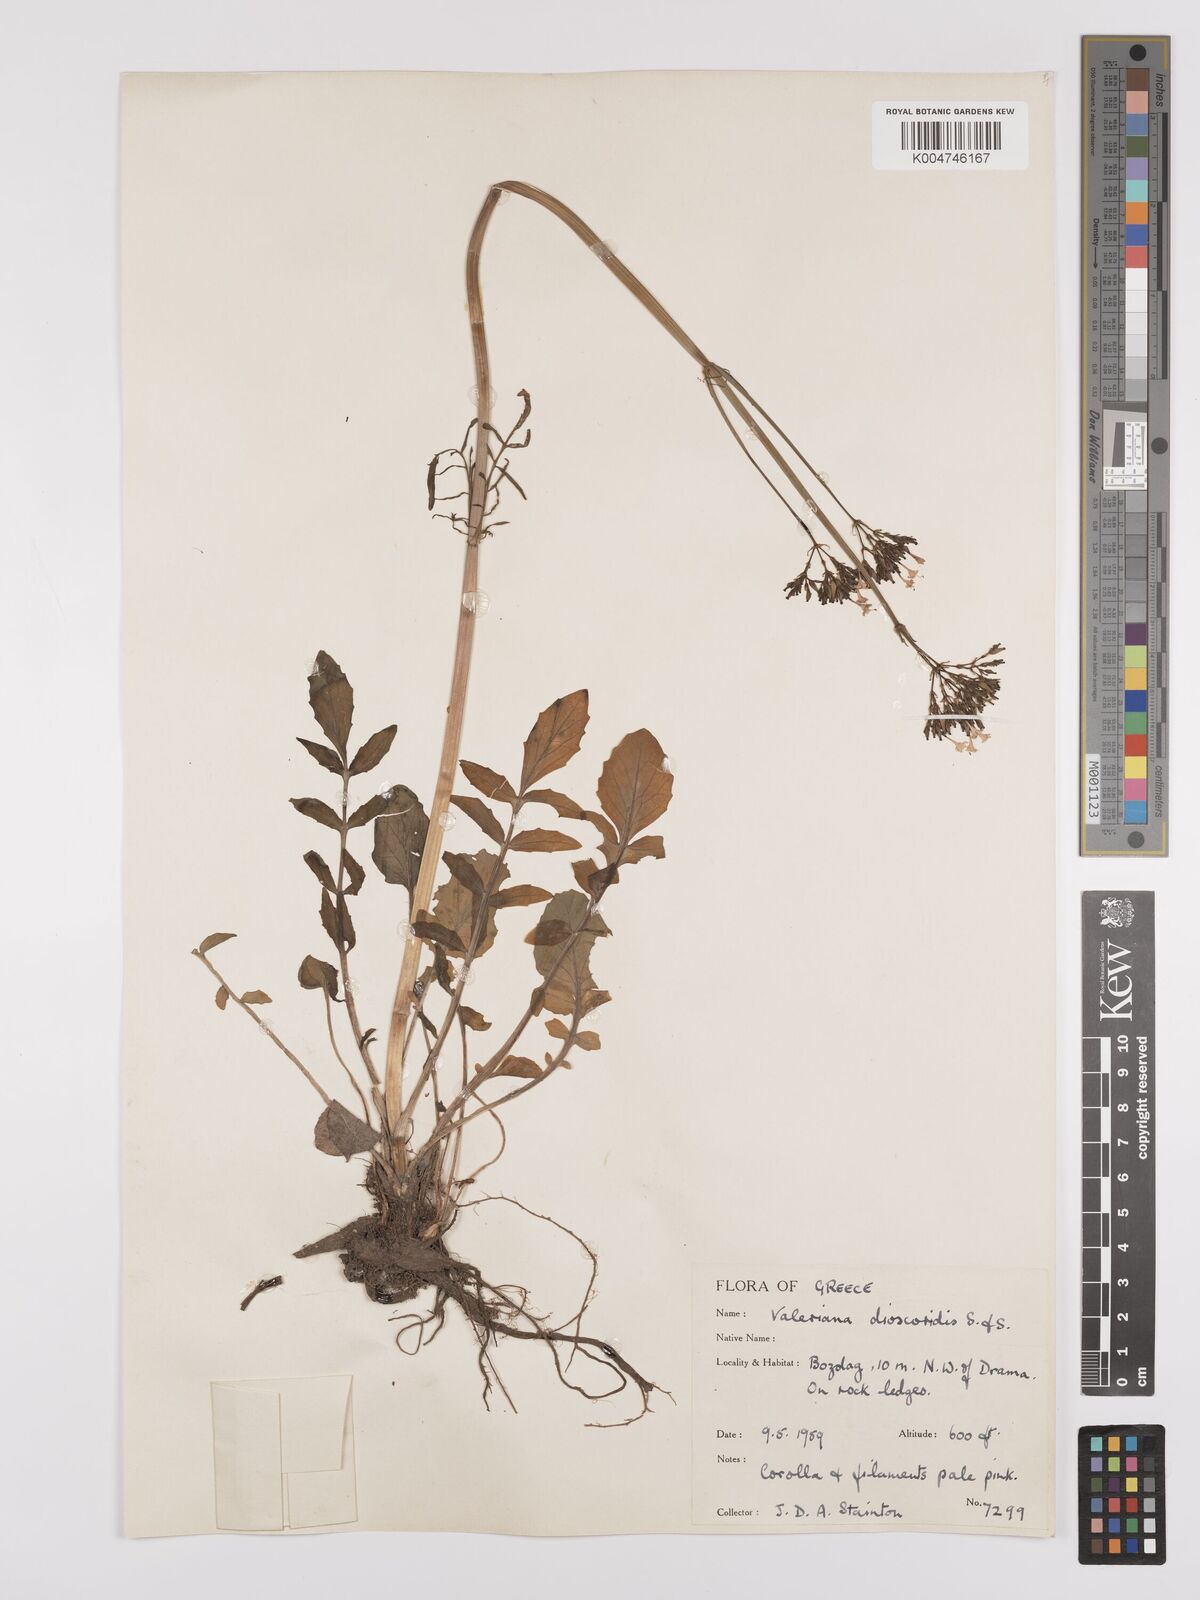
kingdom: Plantae
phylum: Tracheophyta
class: Magnoliopsida
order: Dipsacales
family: Caprifoliaceae
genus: Valeriana
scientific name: Valeriana dioscoridis
